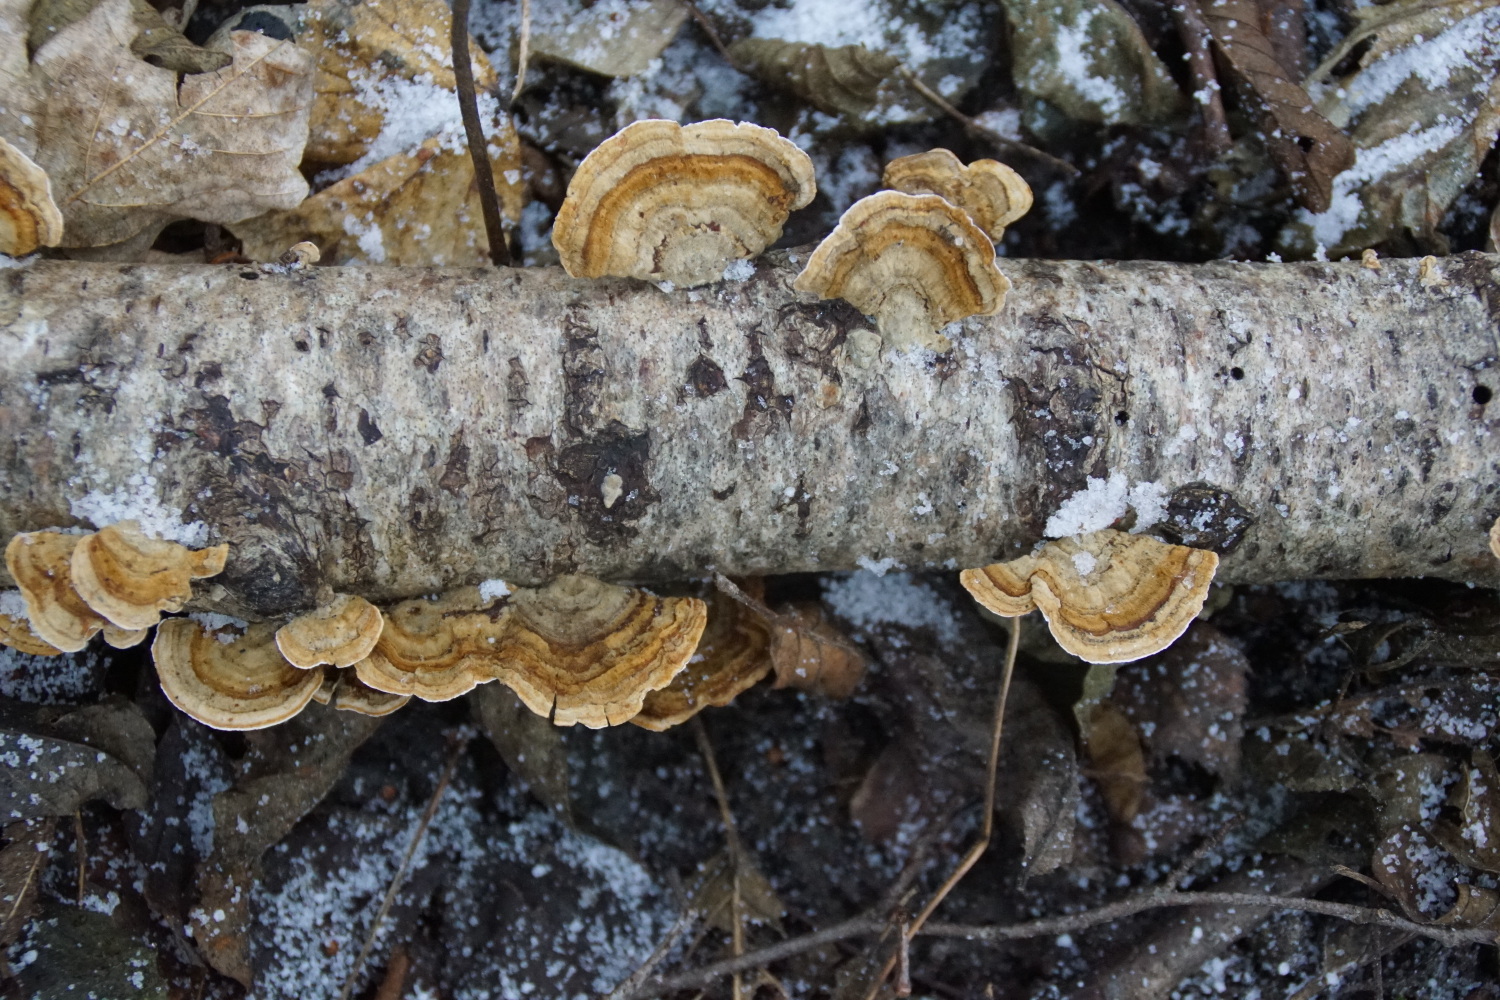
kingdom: Fungi
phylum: Basidiomycota
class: Agaricomycetes
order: Russulales
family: Stereaceae
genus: Stereum
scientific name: Stereum subtomentosum
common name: smuk lædersvamp
